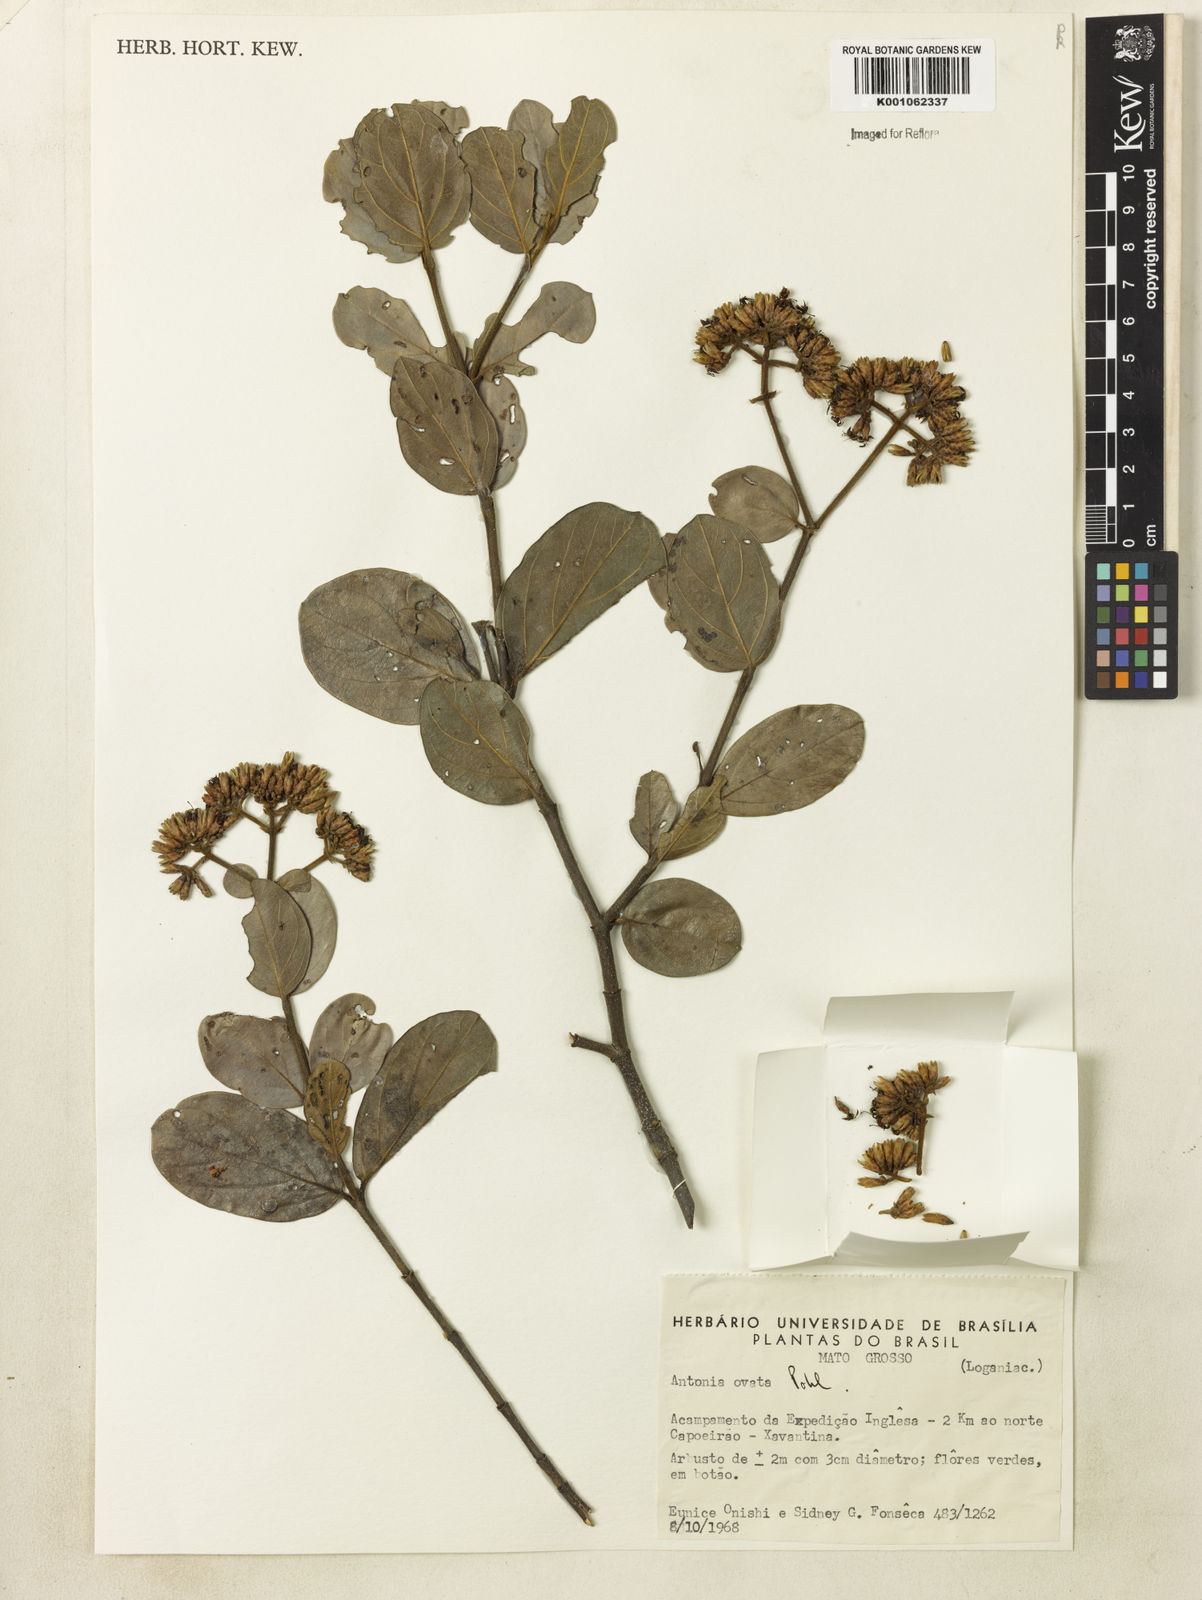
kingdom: Plantae
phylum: Tracheophyta
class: Magnoliopsida
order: Gentianales
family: Loganiaceae
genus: Antonia
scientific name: Antonia ovata
